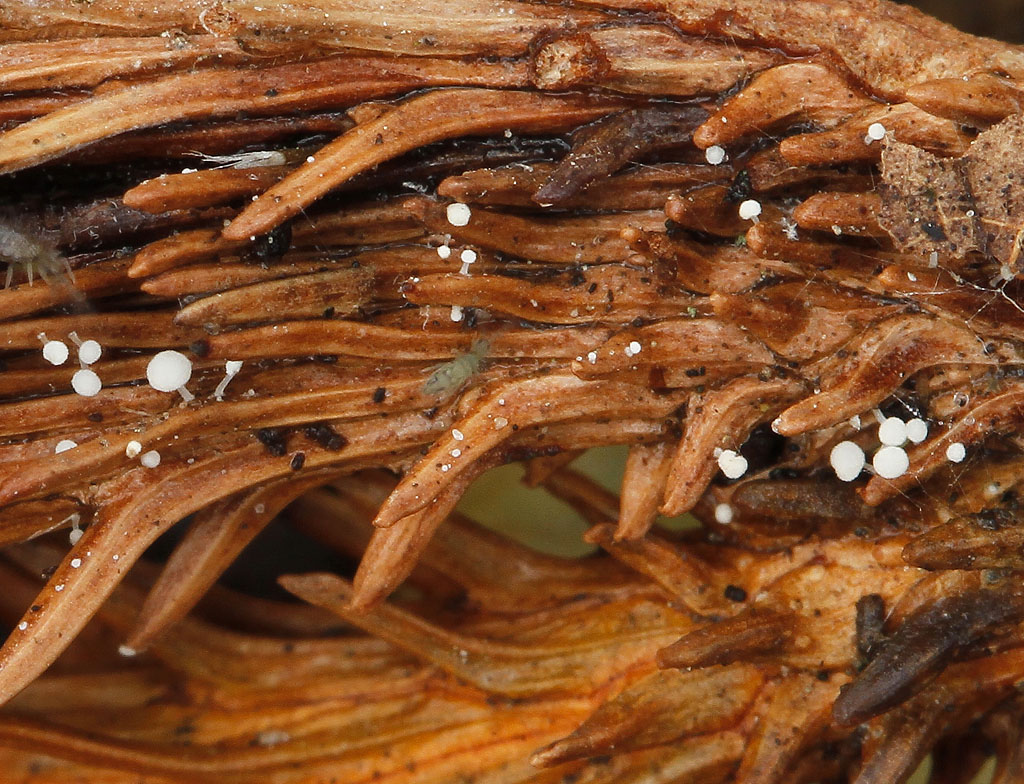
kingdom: Fungi
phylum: Basidiomycota
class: Agaricomycetes
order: Agaricales
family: Physalacriaceae
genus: Physalacria
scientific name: Physalacria cryptomeriae
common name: japangran-boldkølle
